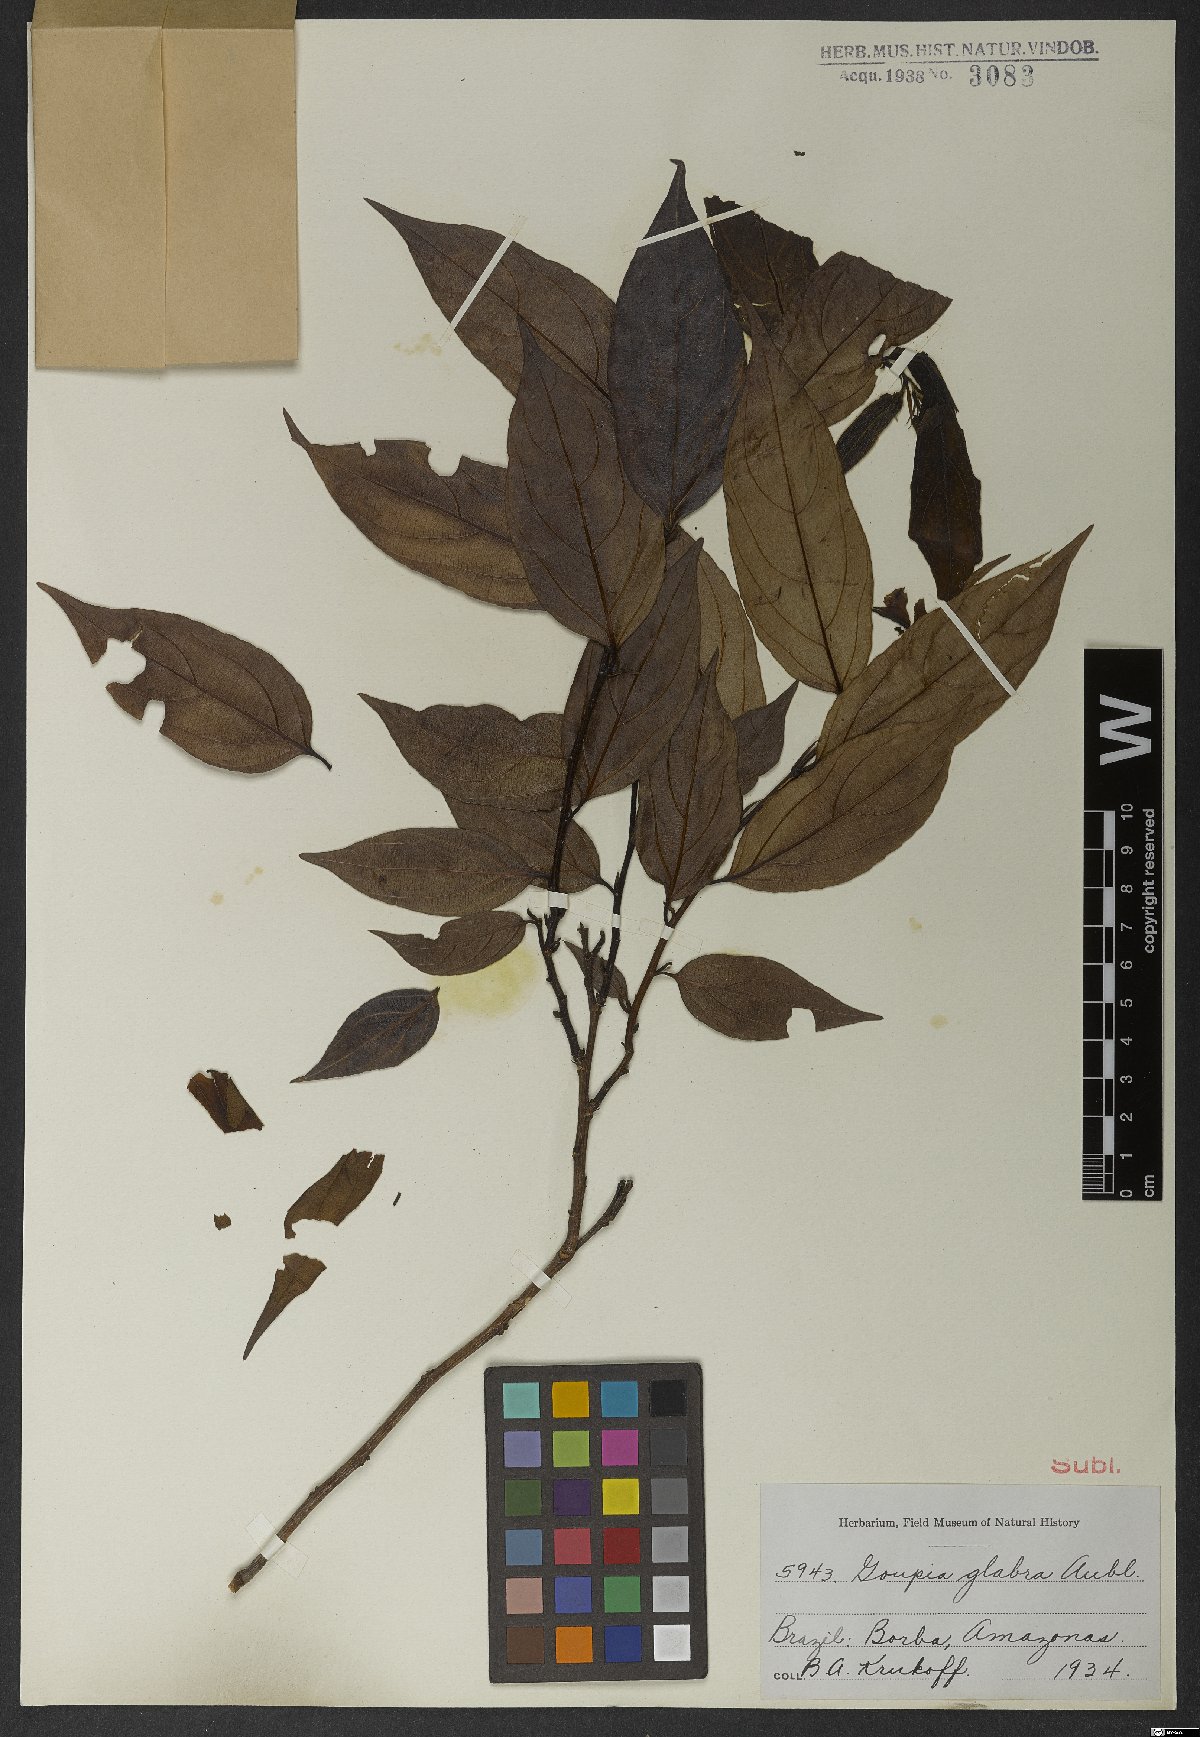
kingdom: Plantae
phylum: Tracheophyta
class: Magnoliopsida
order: Malpighiales
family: Goupiaceae
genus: Goupia
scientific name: Goupia glabra
